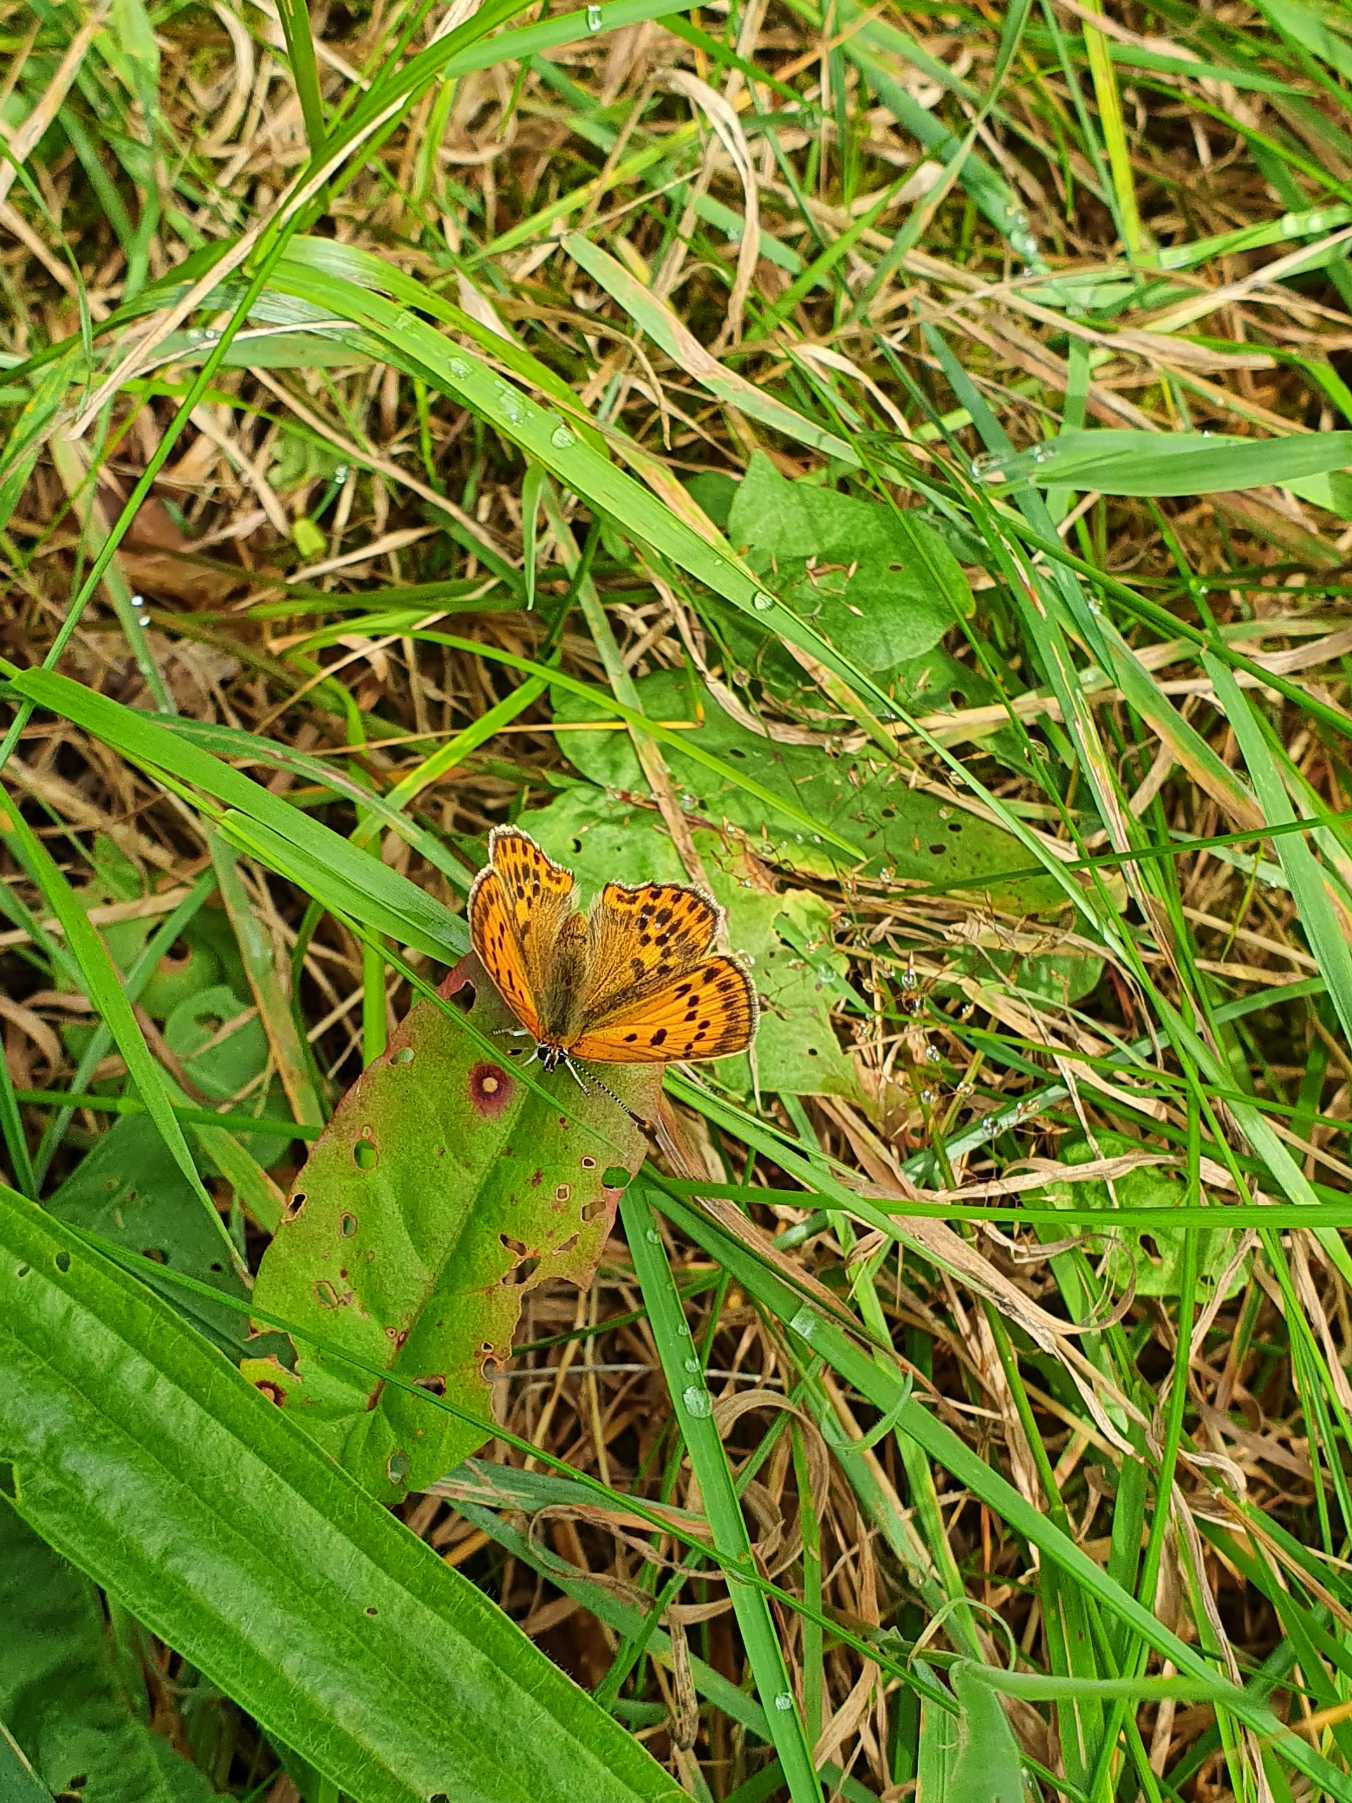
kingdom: Animalia
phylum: Arthropoda
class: Insecta
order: Lepidoptera
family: Lycaenidae
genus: Lycaena
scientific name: Lycaena virgaureae
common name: Dukatsommerfugl
